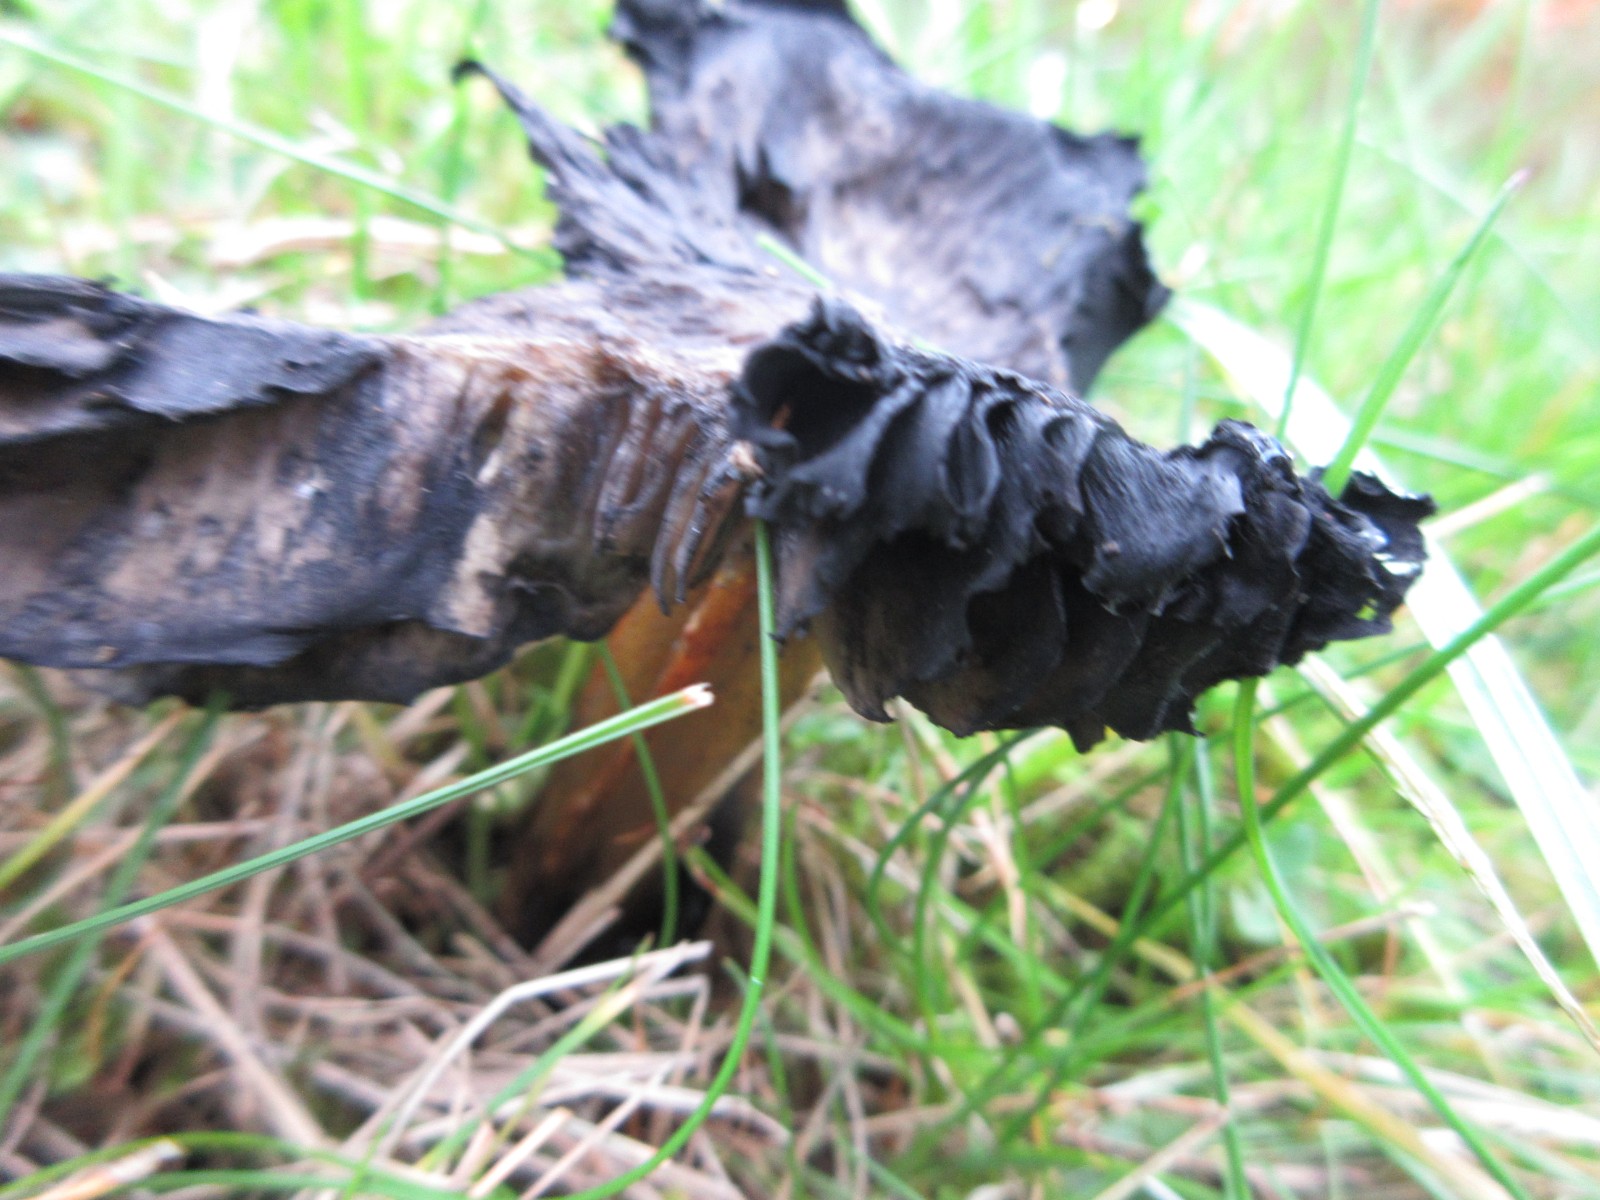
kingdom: Fungi
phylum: Basidiomycota
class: Agaricomycetes
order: Agaricales
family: Hygrophoraceae
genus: Hygrocybe
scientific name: Hygrocybe conica
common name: kegle-vokshat
